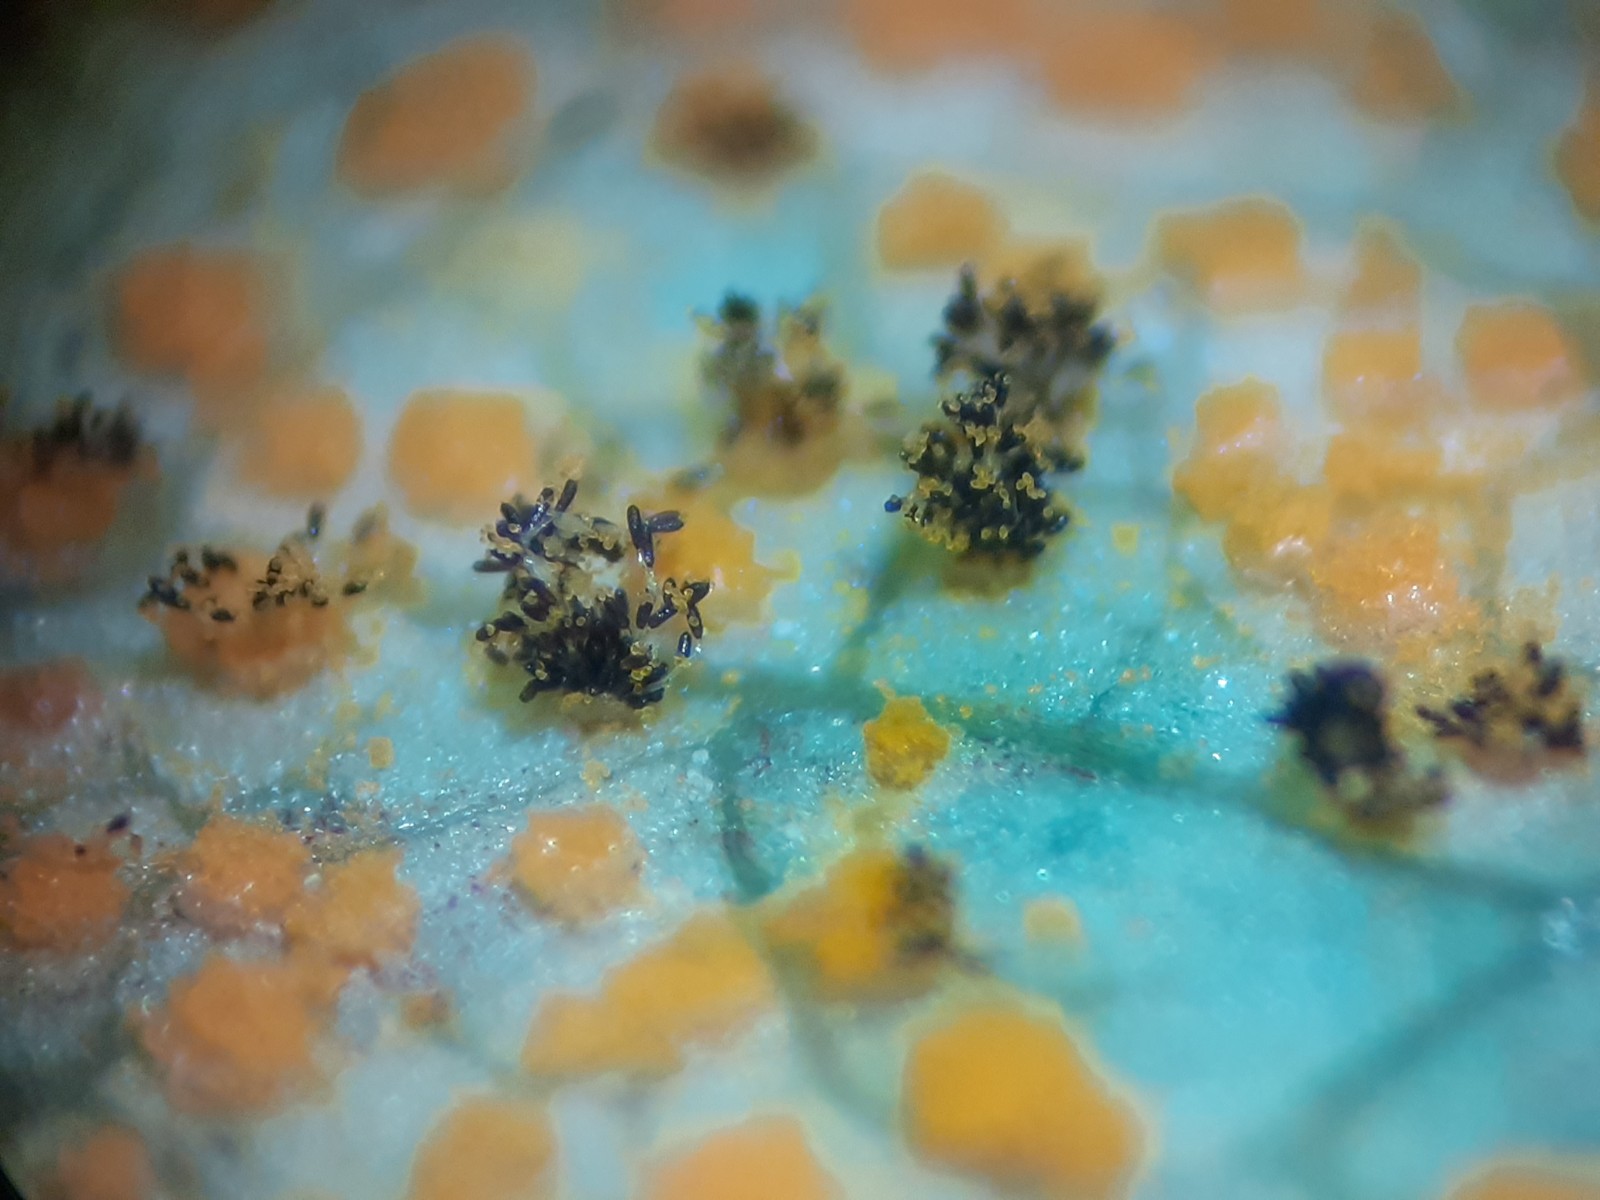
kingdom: Fungi
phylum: Basidiomycota
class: Pucciniomycetes
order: Pucciniales
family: Phragmidiaceae
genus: Phragmidium
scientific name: Phragmidium tuberculatum
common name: Rose rust
